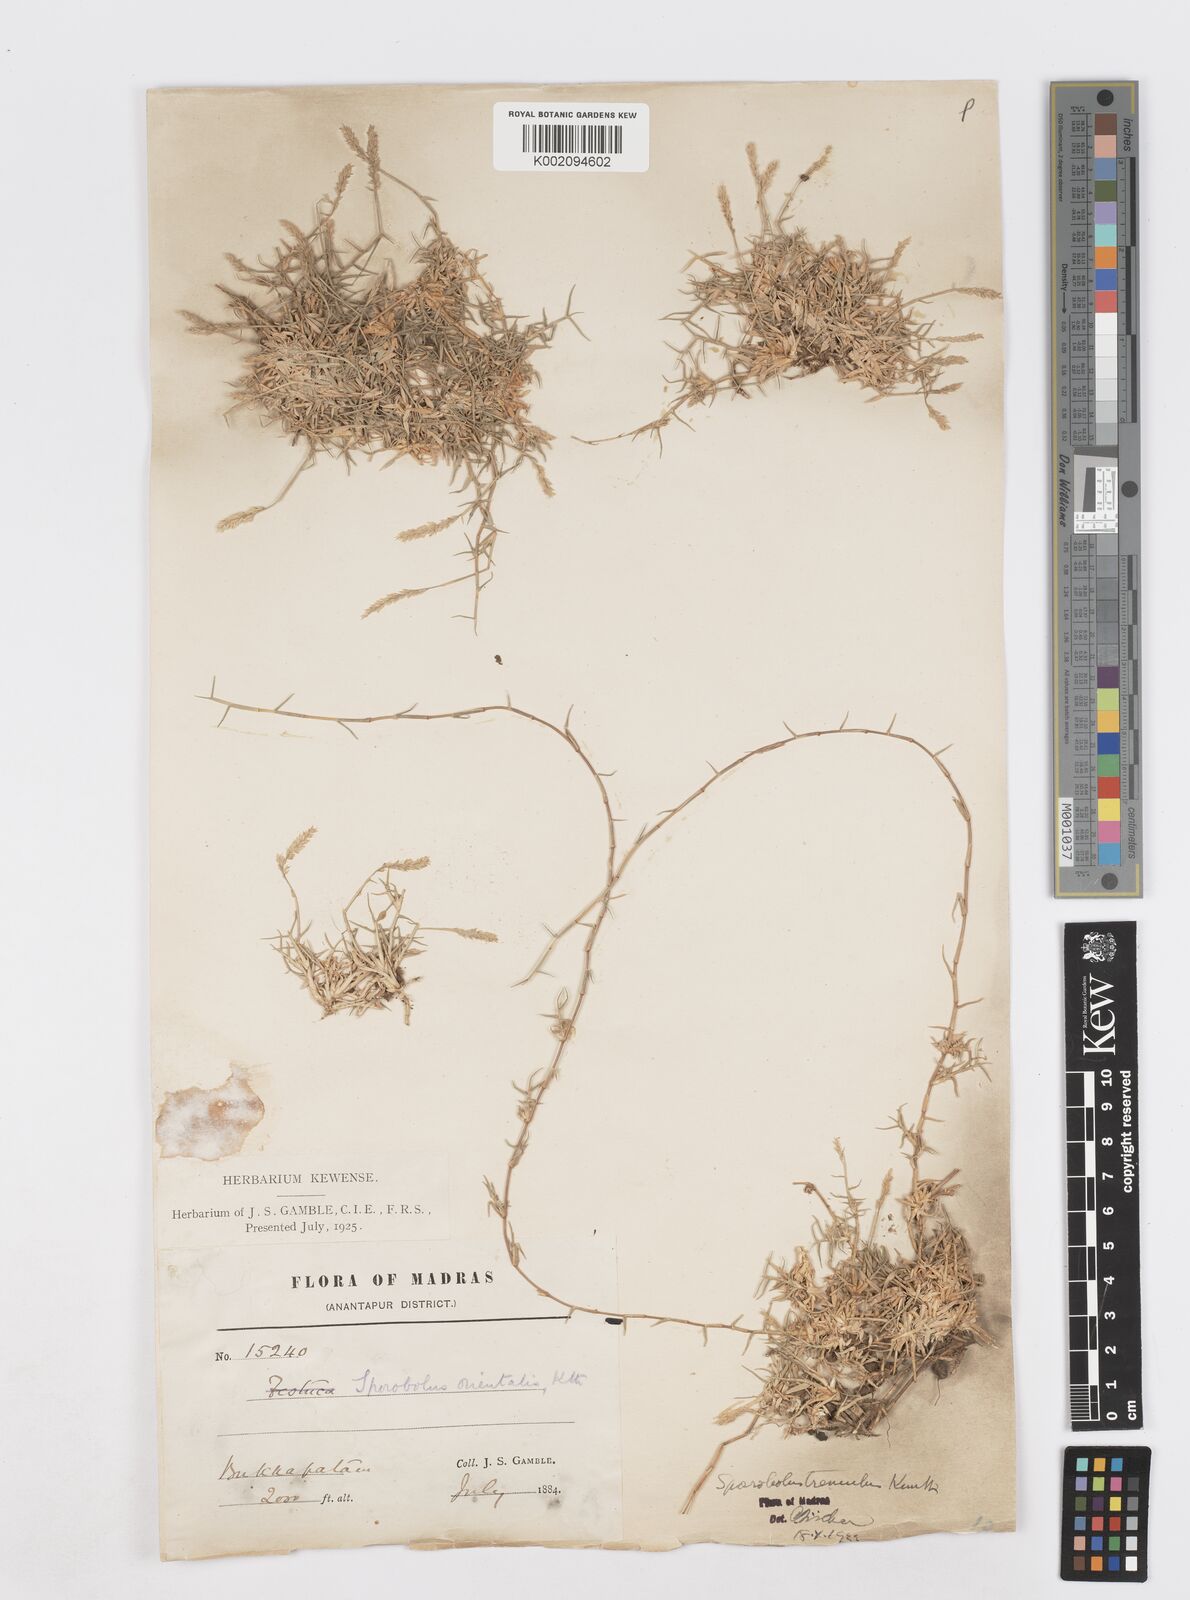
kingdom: Plantae
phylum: Tracheophyta
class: Liliopsida
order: Poales
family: Poaceae
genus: Sporobolus
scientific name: Sporobolus virginicus
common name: Beach dropseed
